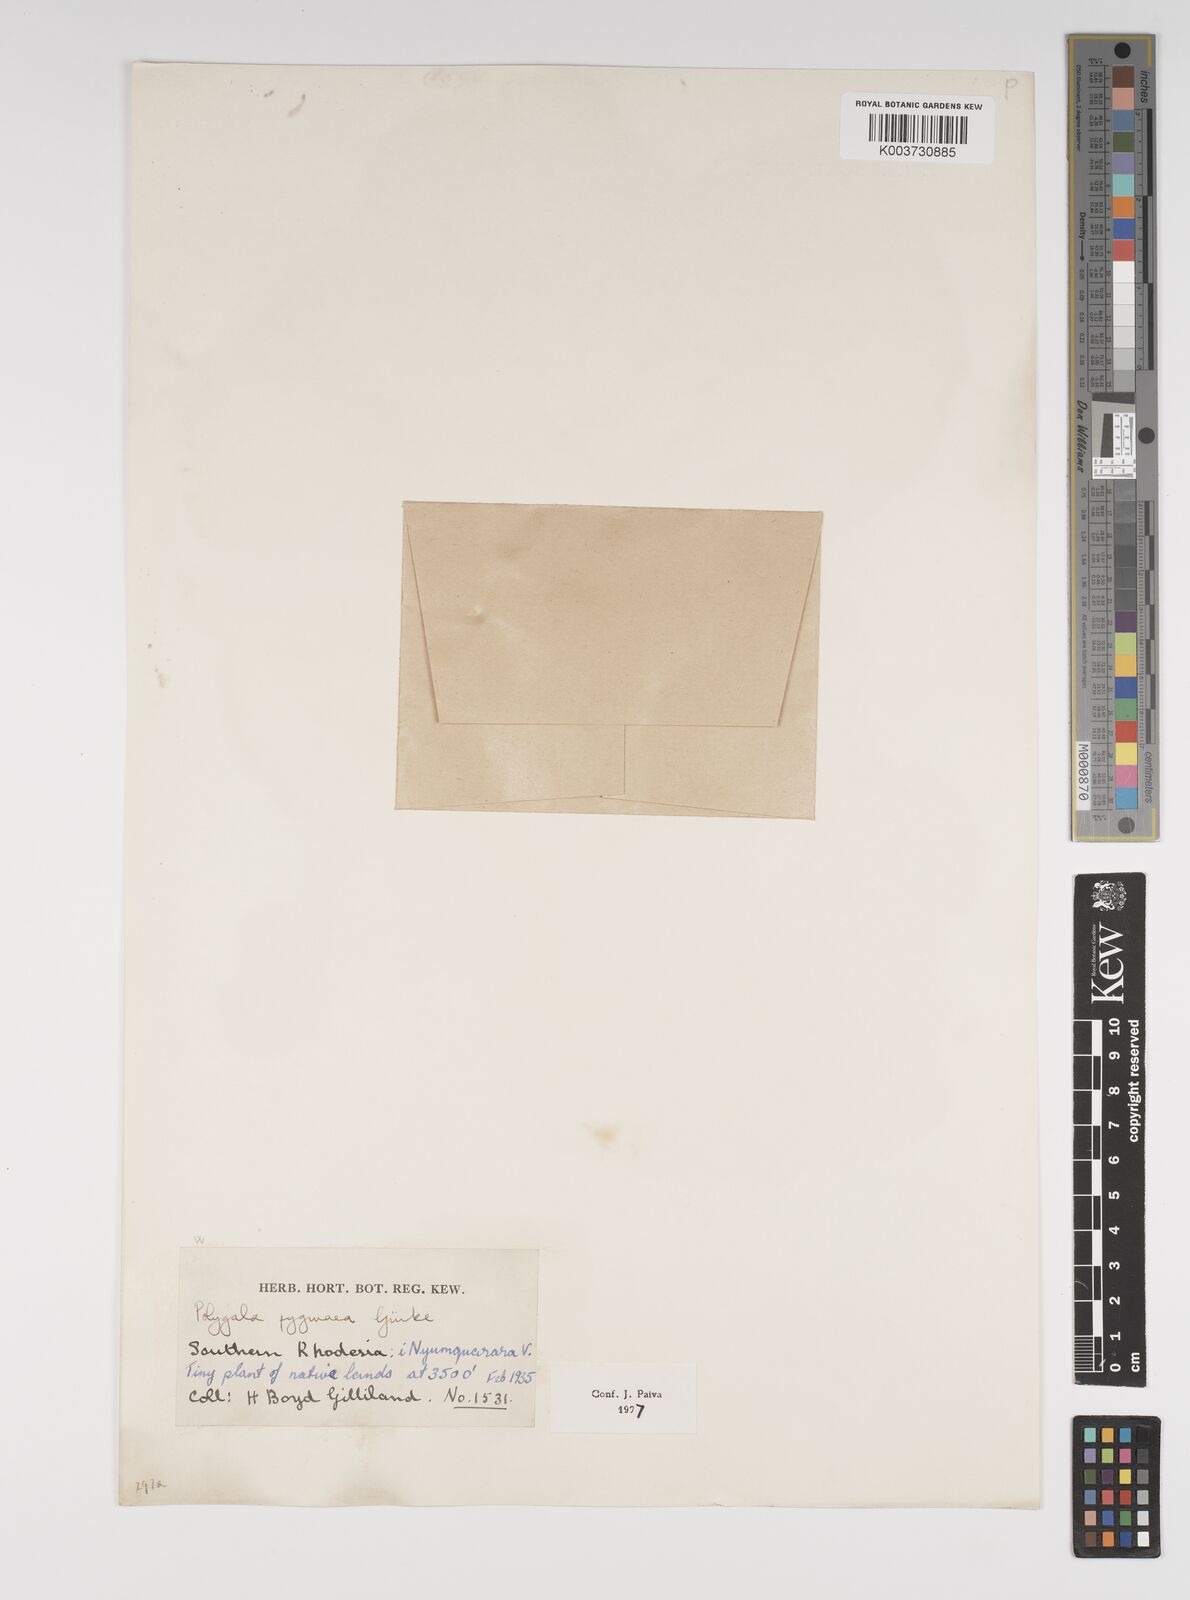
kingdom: Plantae
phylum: Tracheophyta
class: Magnoliopsida
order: Fabales
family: Polygalaceae
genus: Polygala
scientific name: Polygala welwitschii
